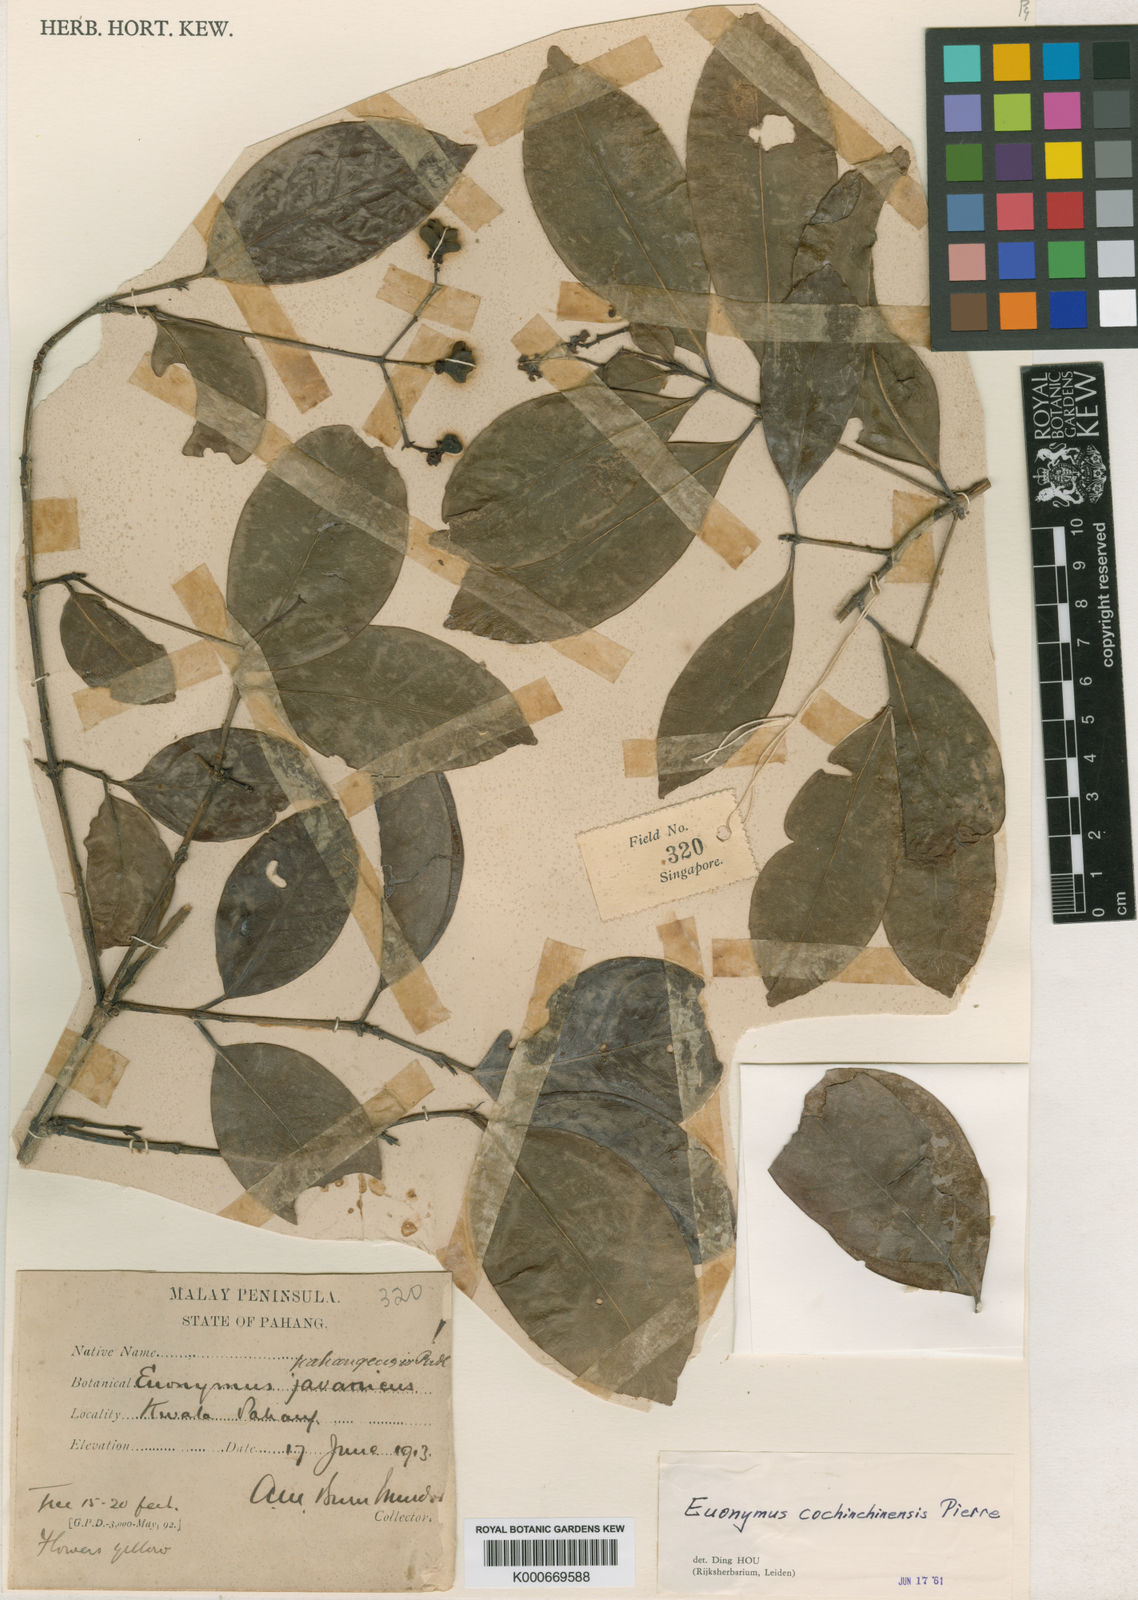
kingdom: Plantae
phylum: Tracheophyta
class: Magnoliopsida
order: Celastrales
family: Celastraceae
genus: Euonymus
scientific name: Euonymus cochinchinensis
